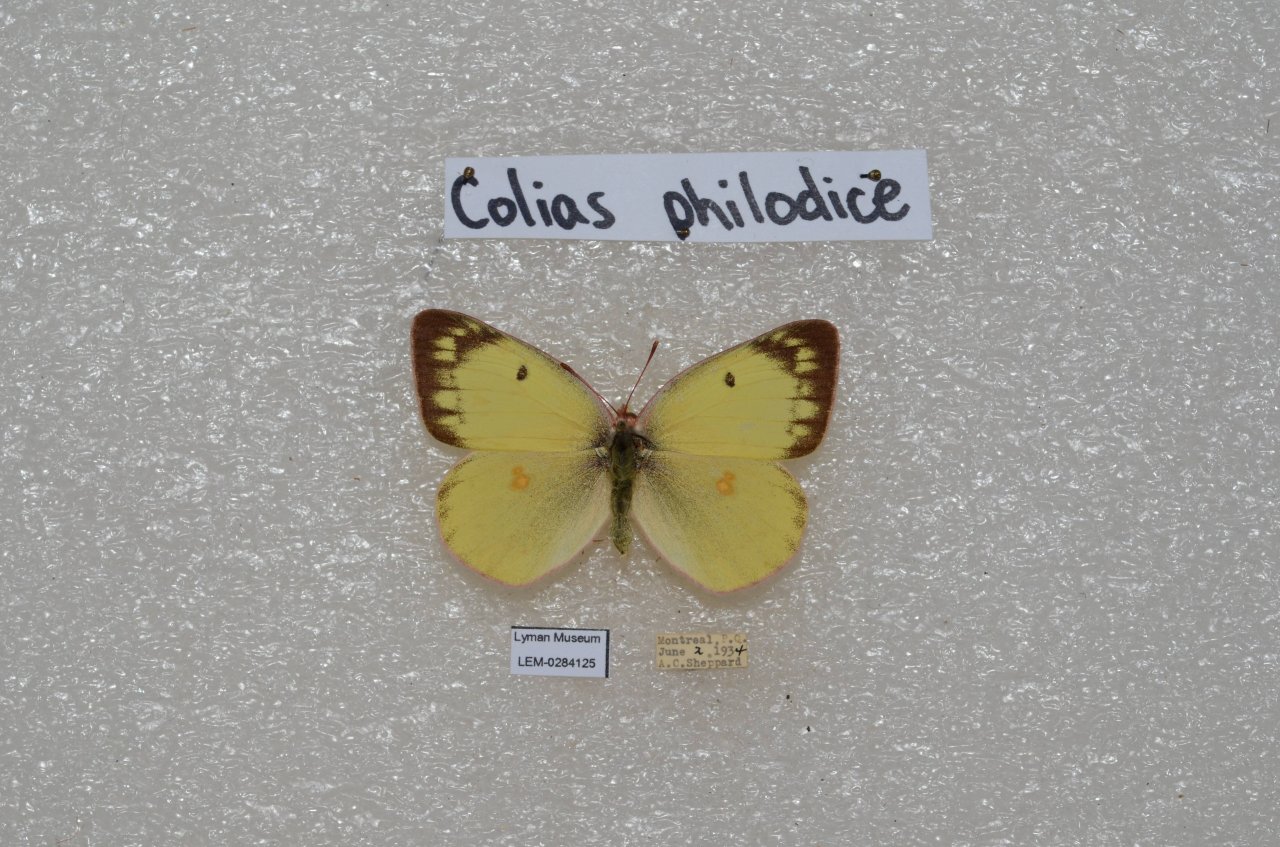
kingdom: Animalia
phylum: Arthropoda
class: Insecta
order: Lepidoptera
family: Pieridae
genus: Colias
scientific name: Colias philodice
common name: Clouded Sulphur
